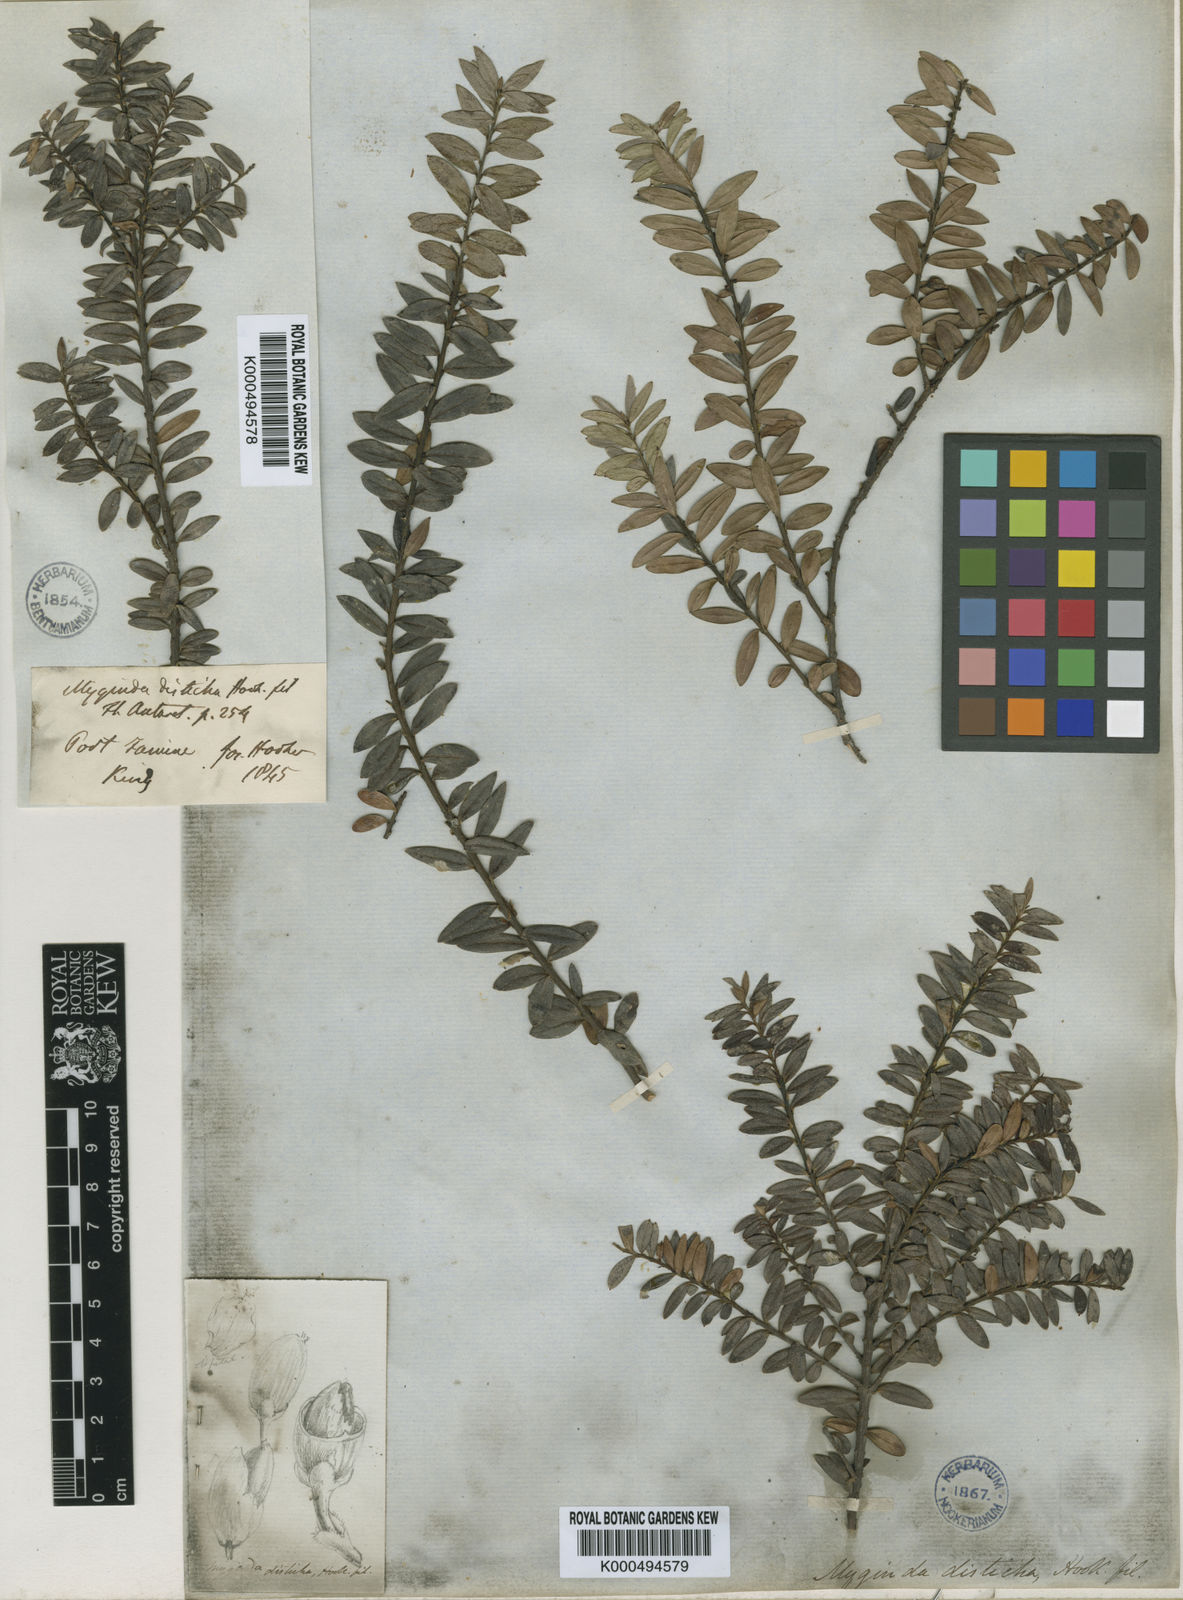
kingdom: Plantae
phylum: Tracheophyta
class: Magnoliopsida
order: Celastrales
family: Celastraceae
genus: Maytenus
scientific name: Maytenus disticha
